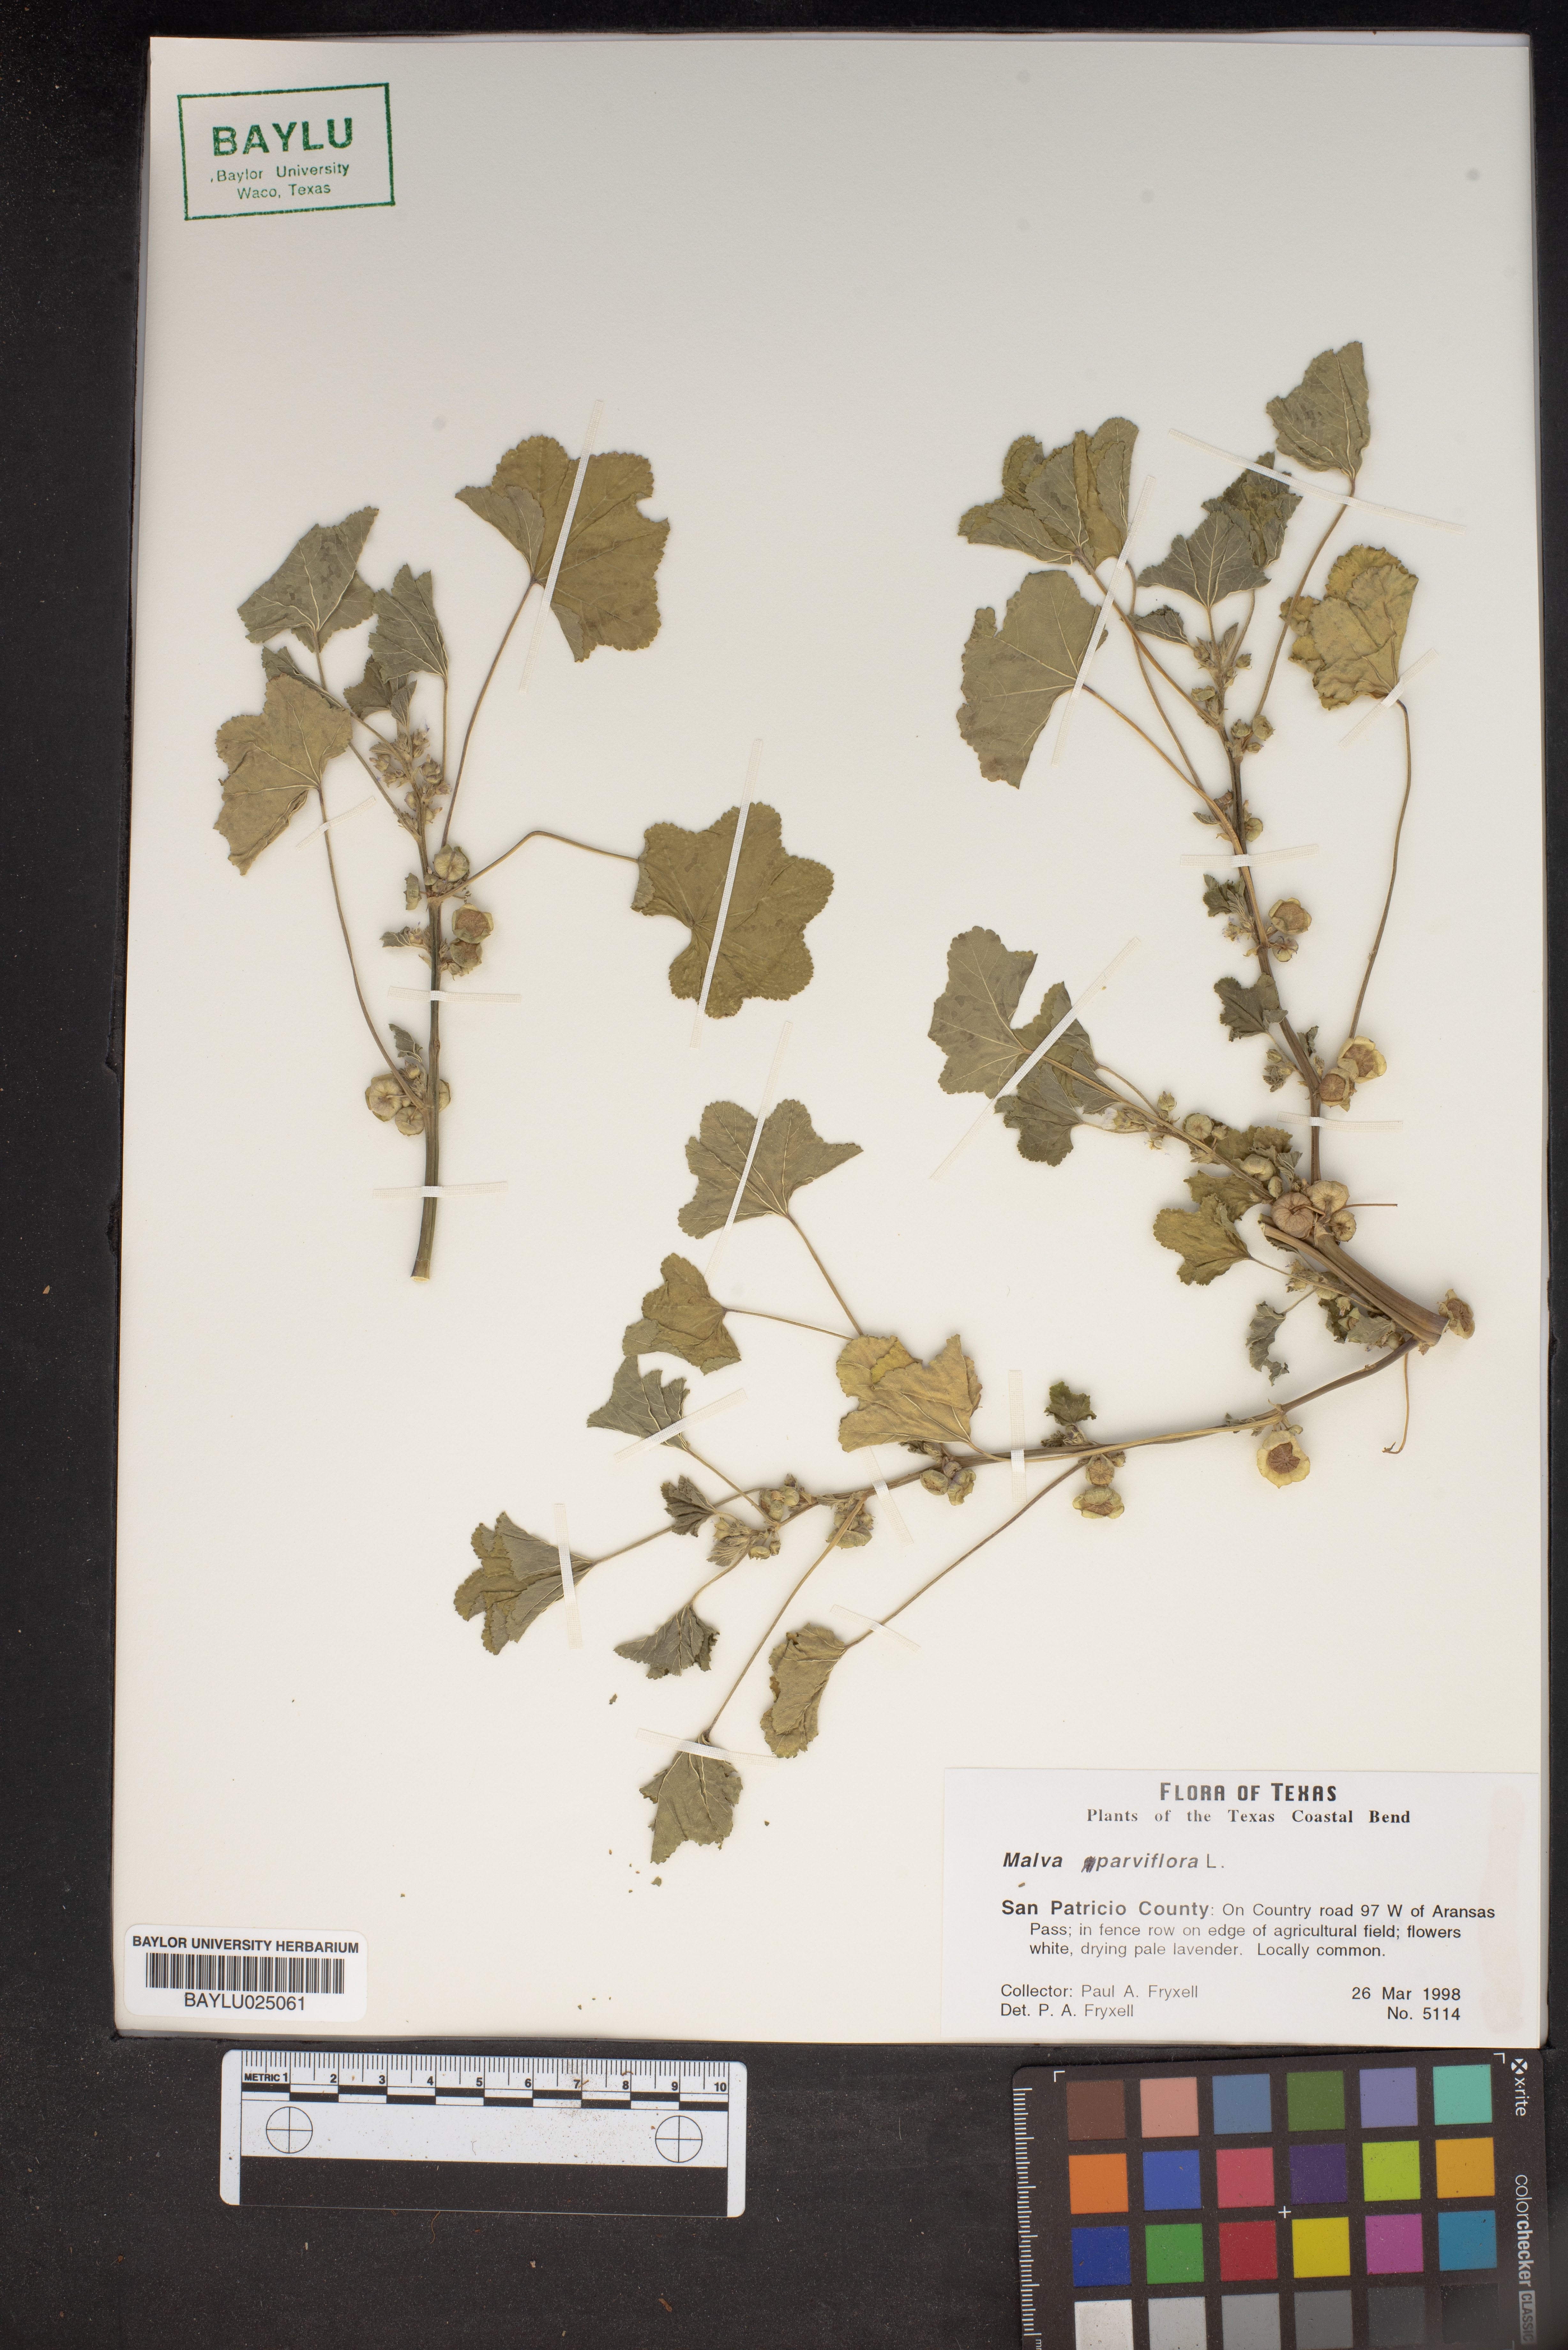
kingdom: Plantae
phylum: Tracheophyta
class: Magnoliopsida
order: Malvales
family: Malvaceae
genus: Malva
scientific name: Malva parviflora
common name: Least mallow
